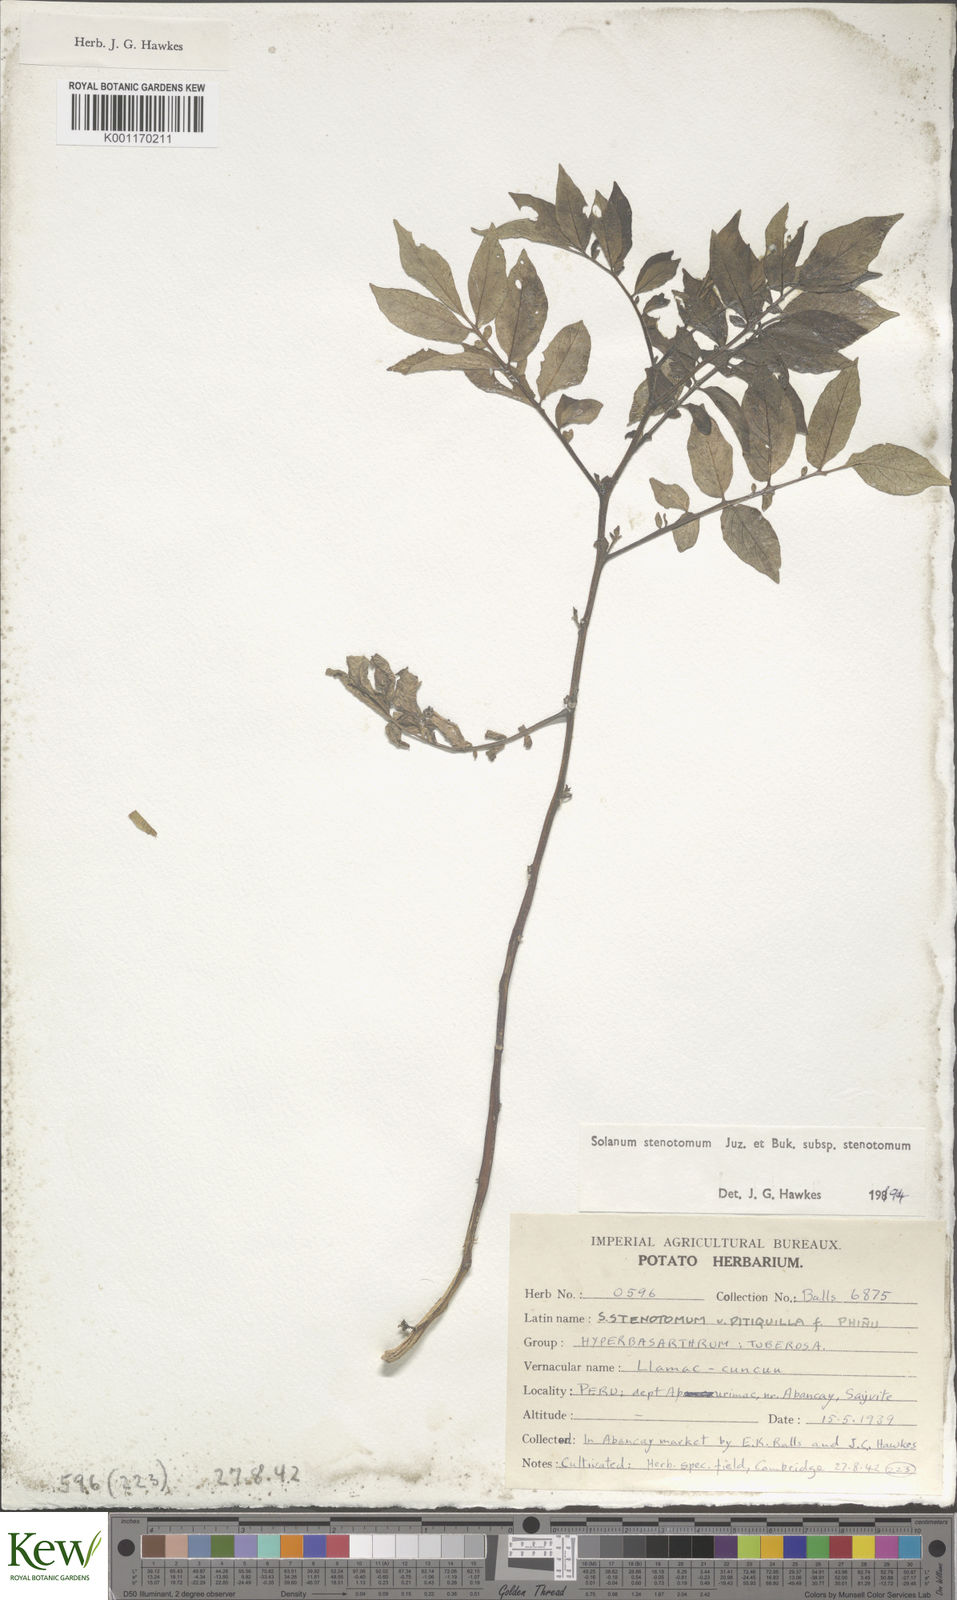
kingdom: Plantae
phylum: Tracheophyta
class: Magnoliopsida
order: Solanales
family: Solanaceae
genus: Solanum
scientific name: Solanum tuberosum
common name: Potato
